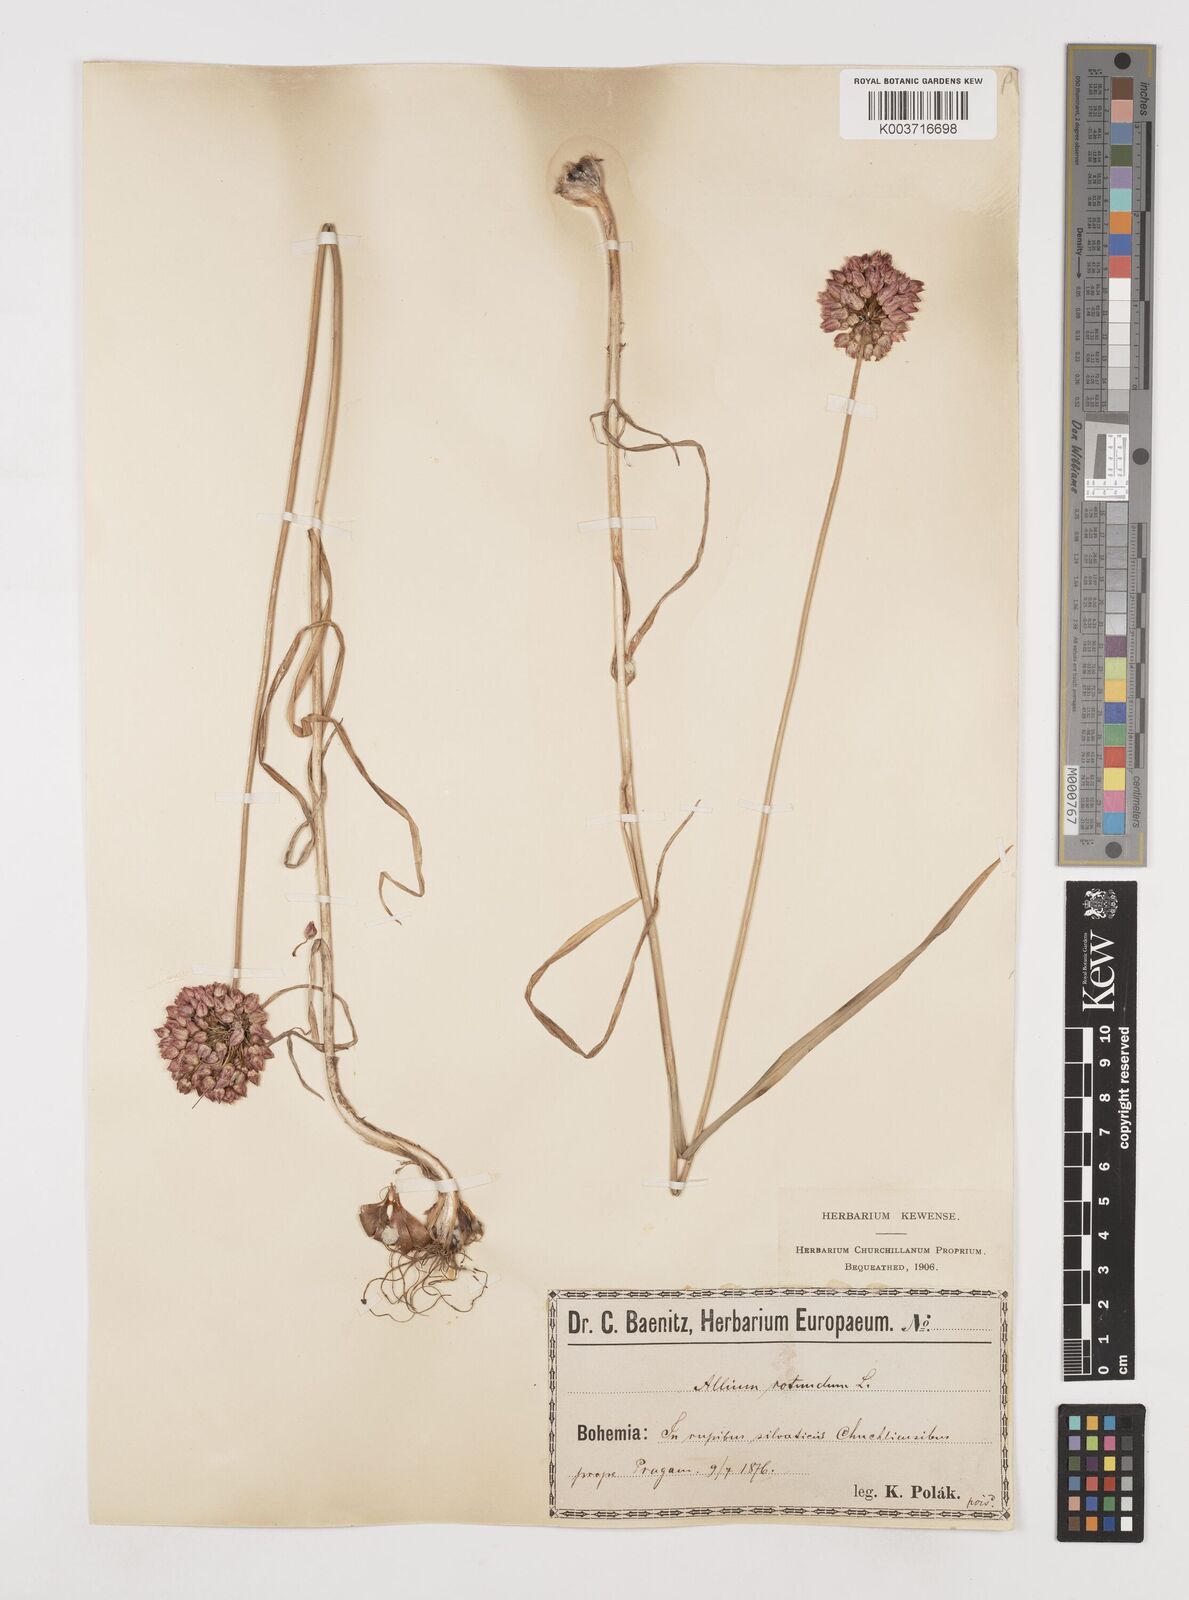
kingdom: Plantae
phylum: Tracheophyta
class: Liliopsida
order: Asparagales
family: Amaryllidaceae
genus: Allium
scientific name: Allium rotundum
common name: Sand leek
